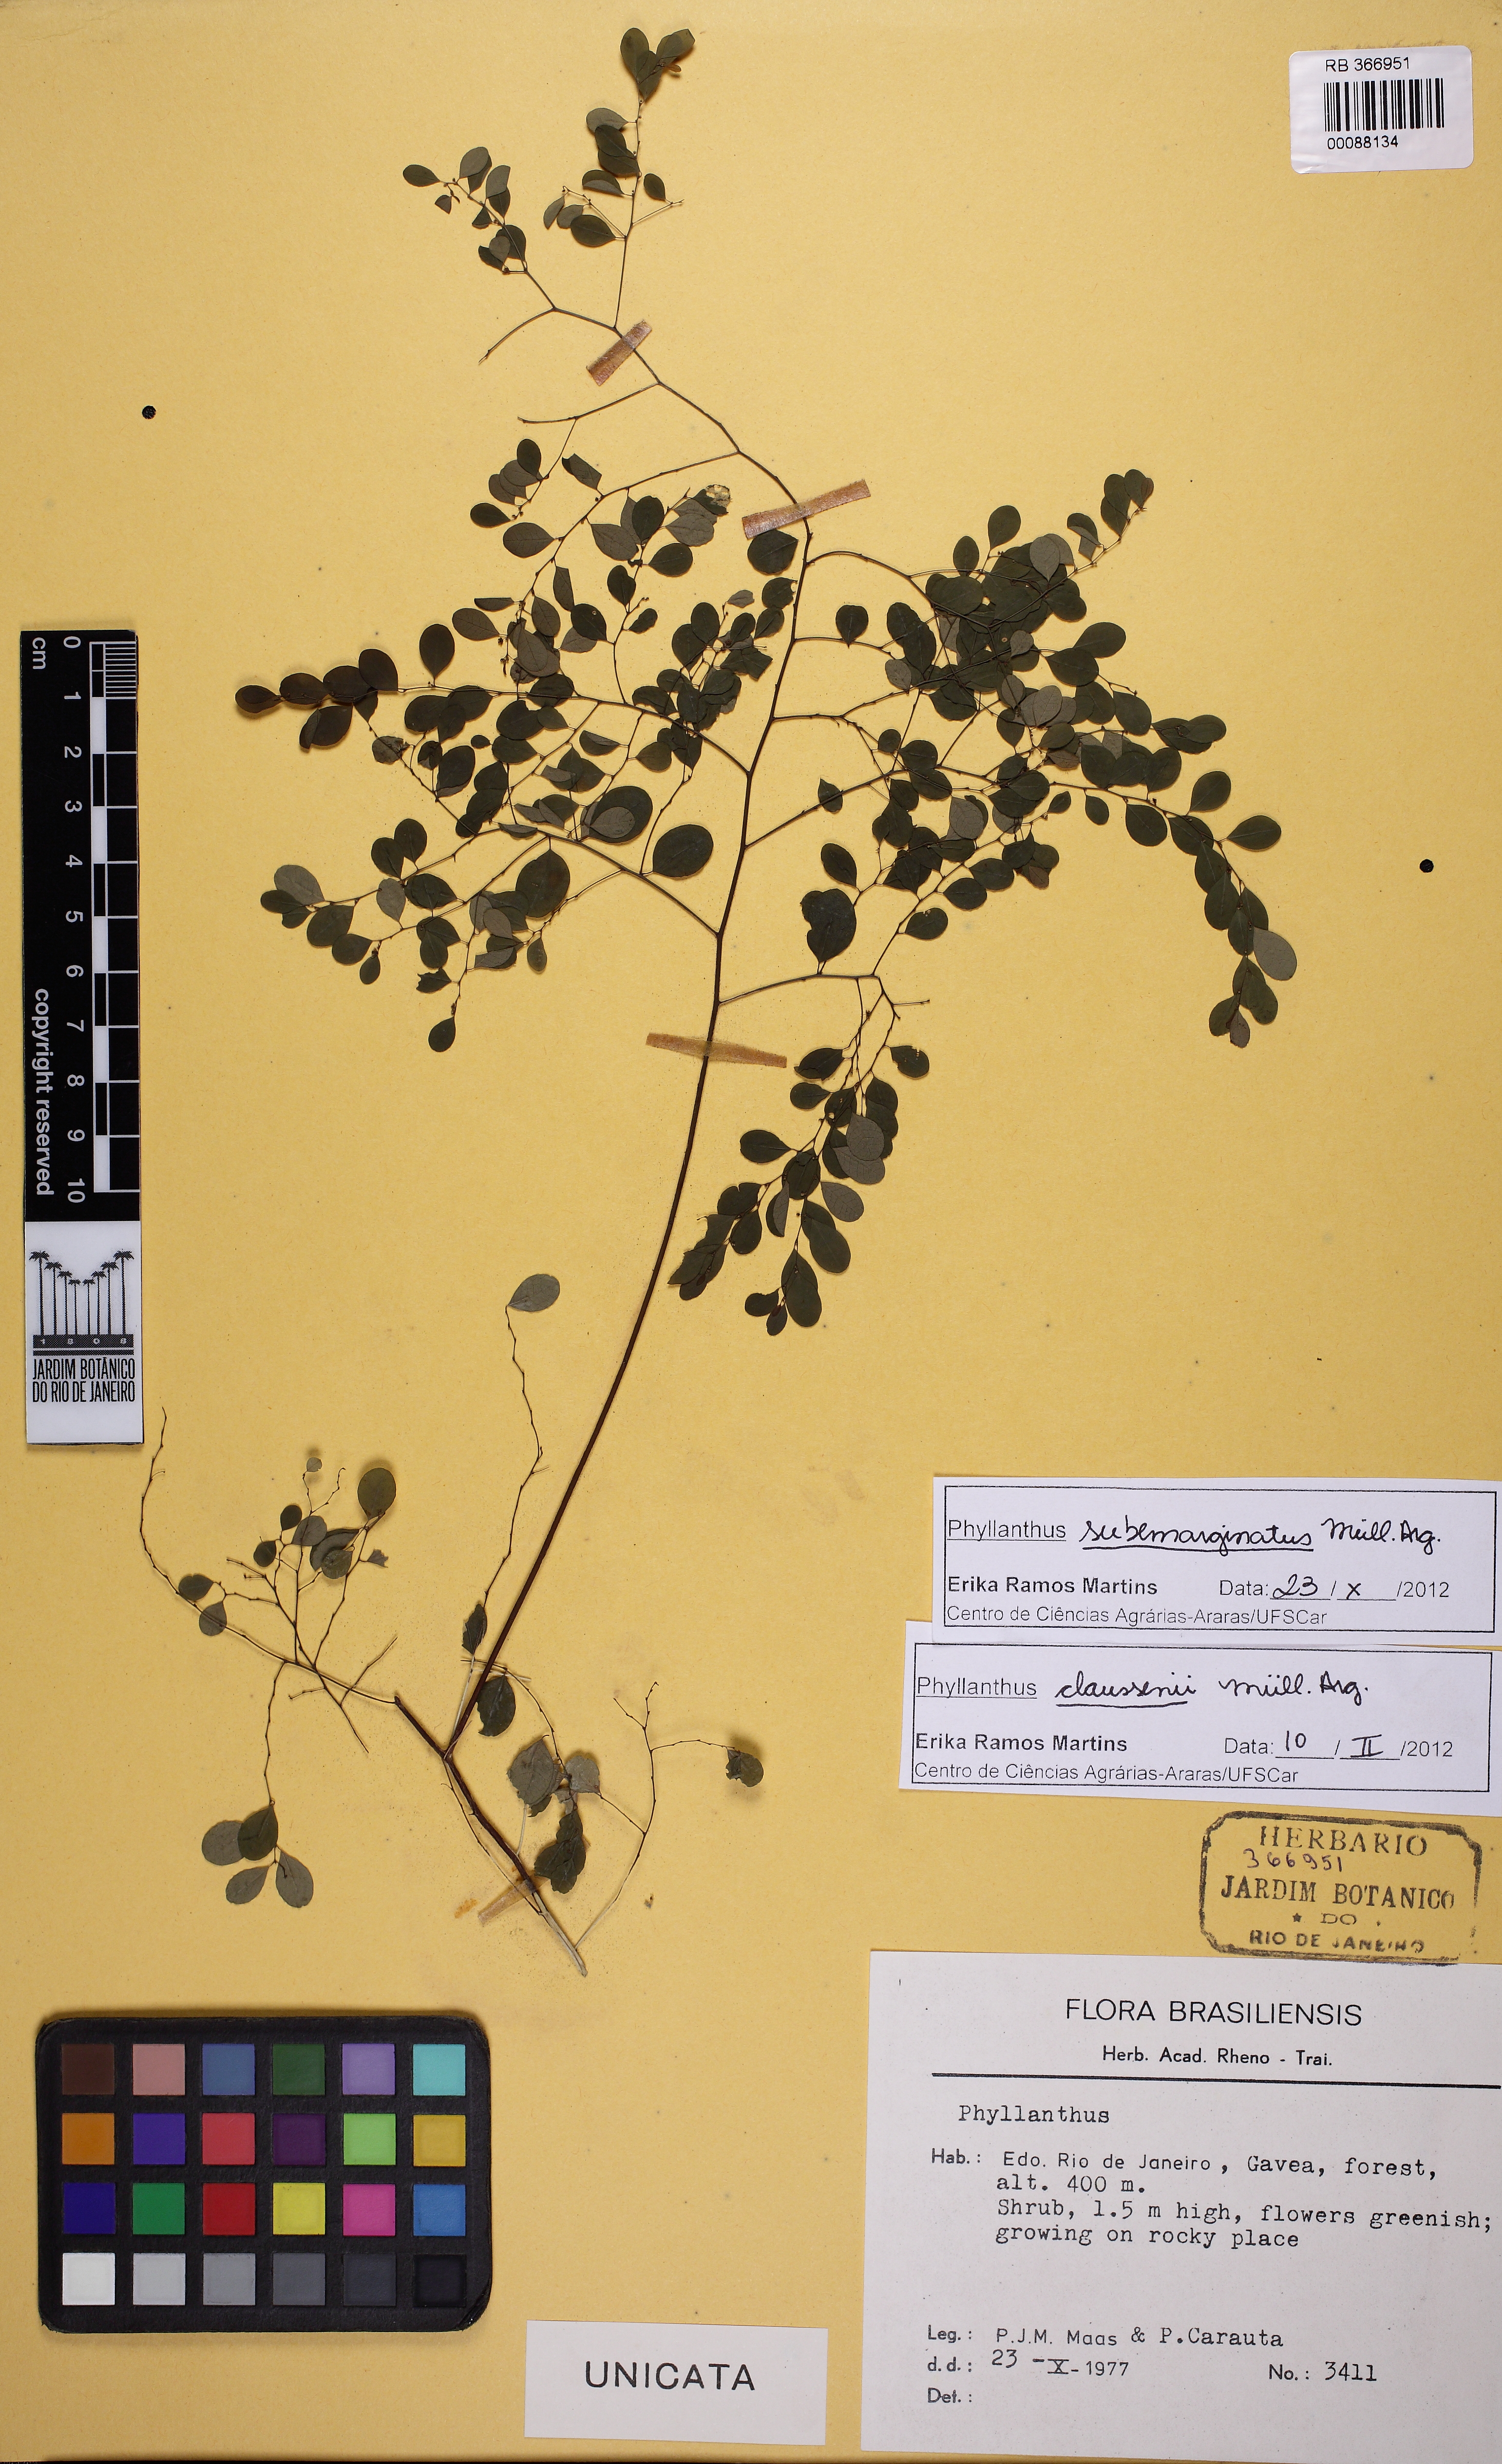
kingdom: Plantae
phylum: Tracheophyta
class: Magnoliopsida
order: Malpighiales
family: Phyllanthaceae
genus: Phyllanthus
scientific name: Phyllanthus subemarginatus
